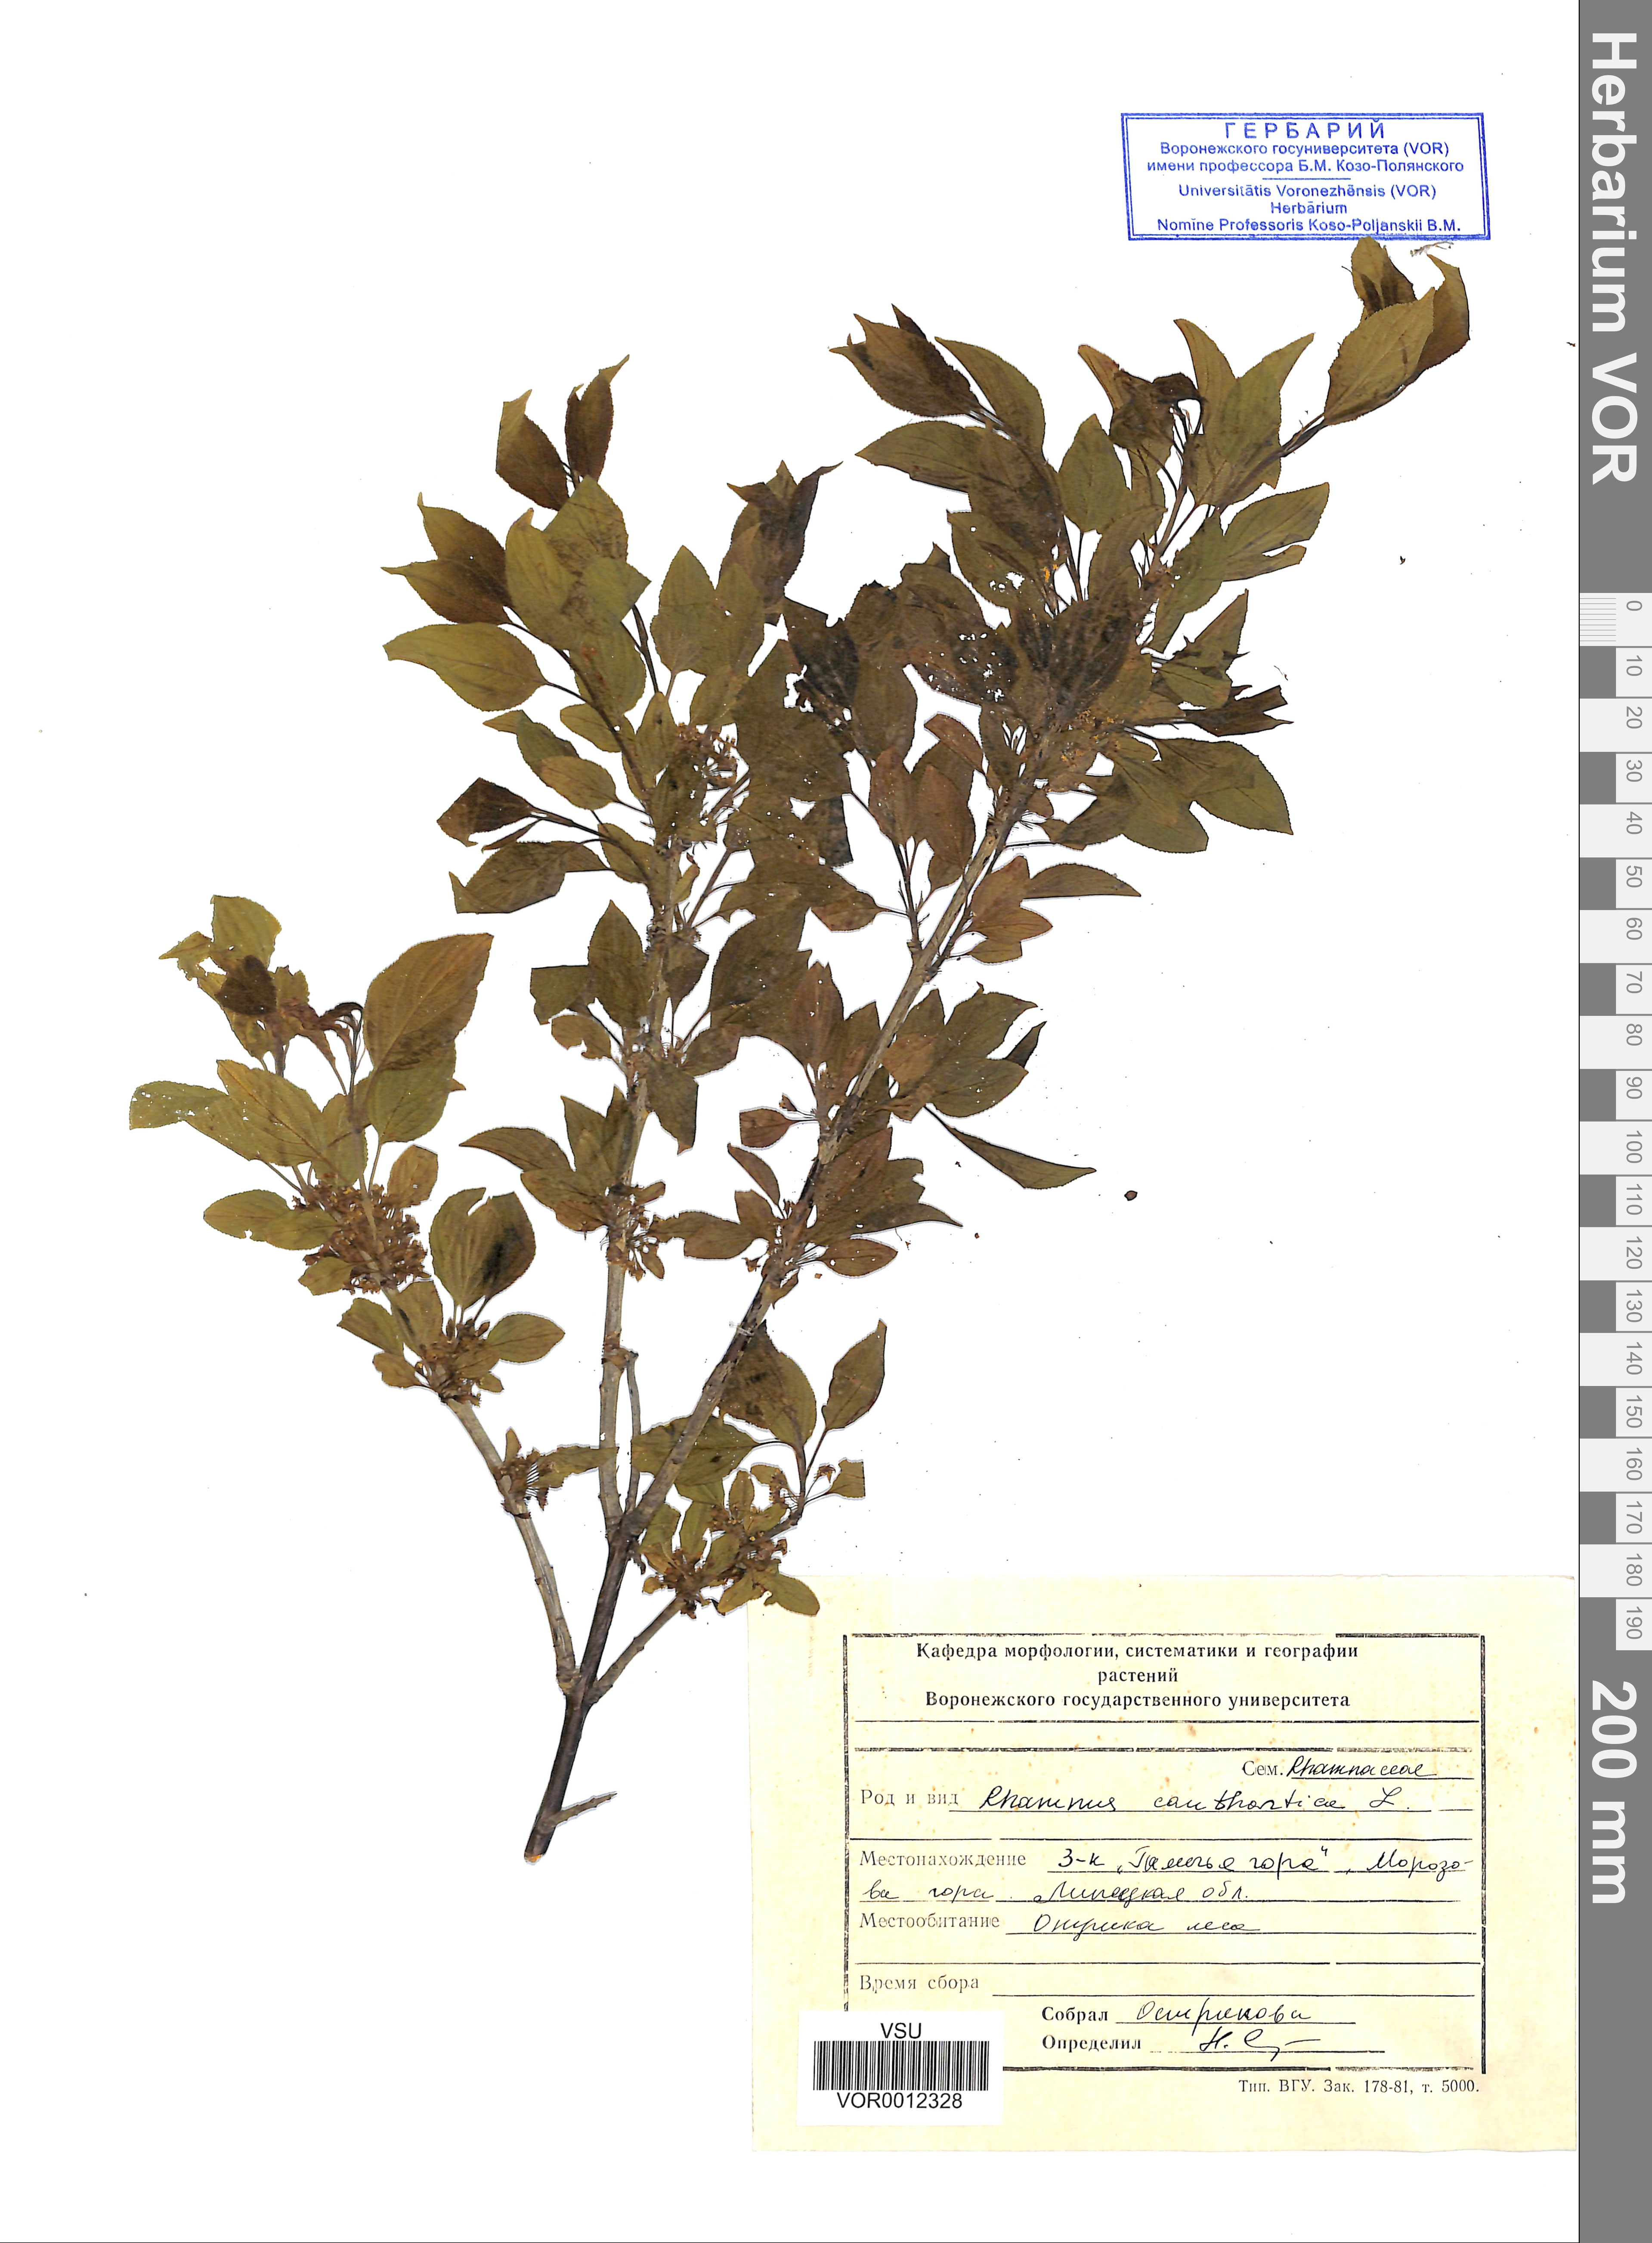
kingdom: Plantae
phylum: Tracheophyta
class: Magnoliopsida
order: Rosales
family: Rhamnaceae
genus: Rhamnus
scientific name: Rhamnus cathartica
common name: Common buckthorn
